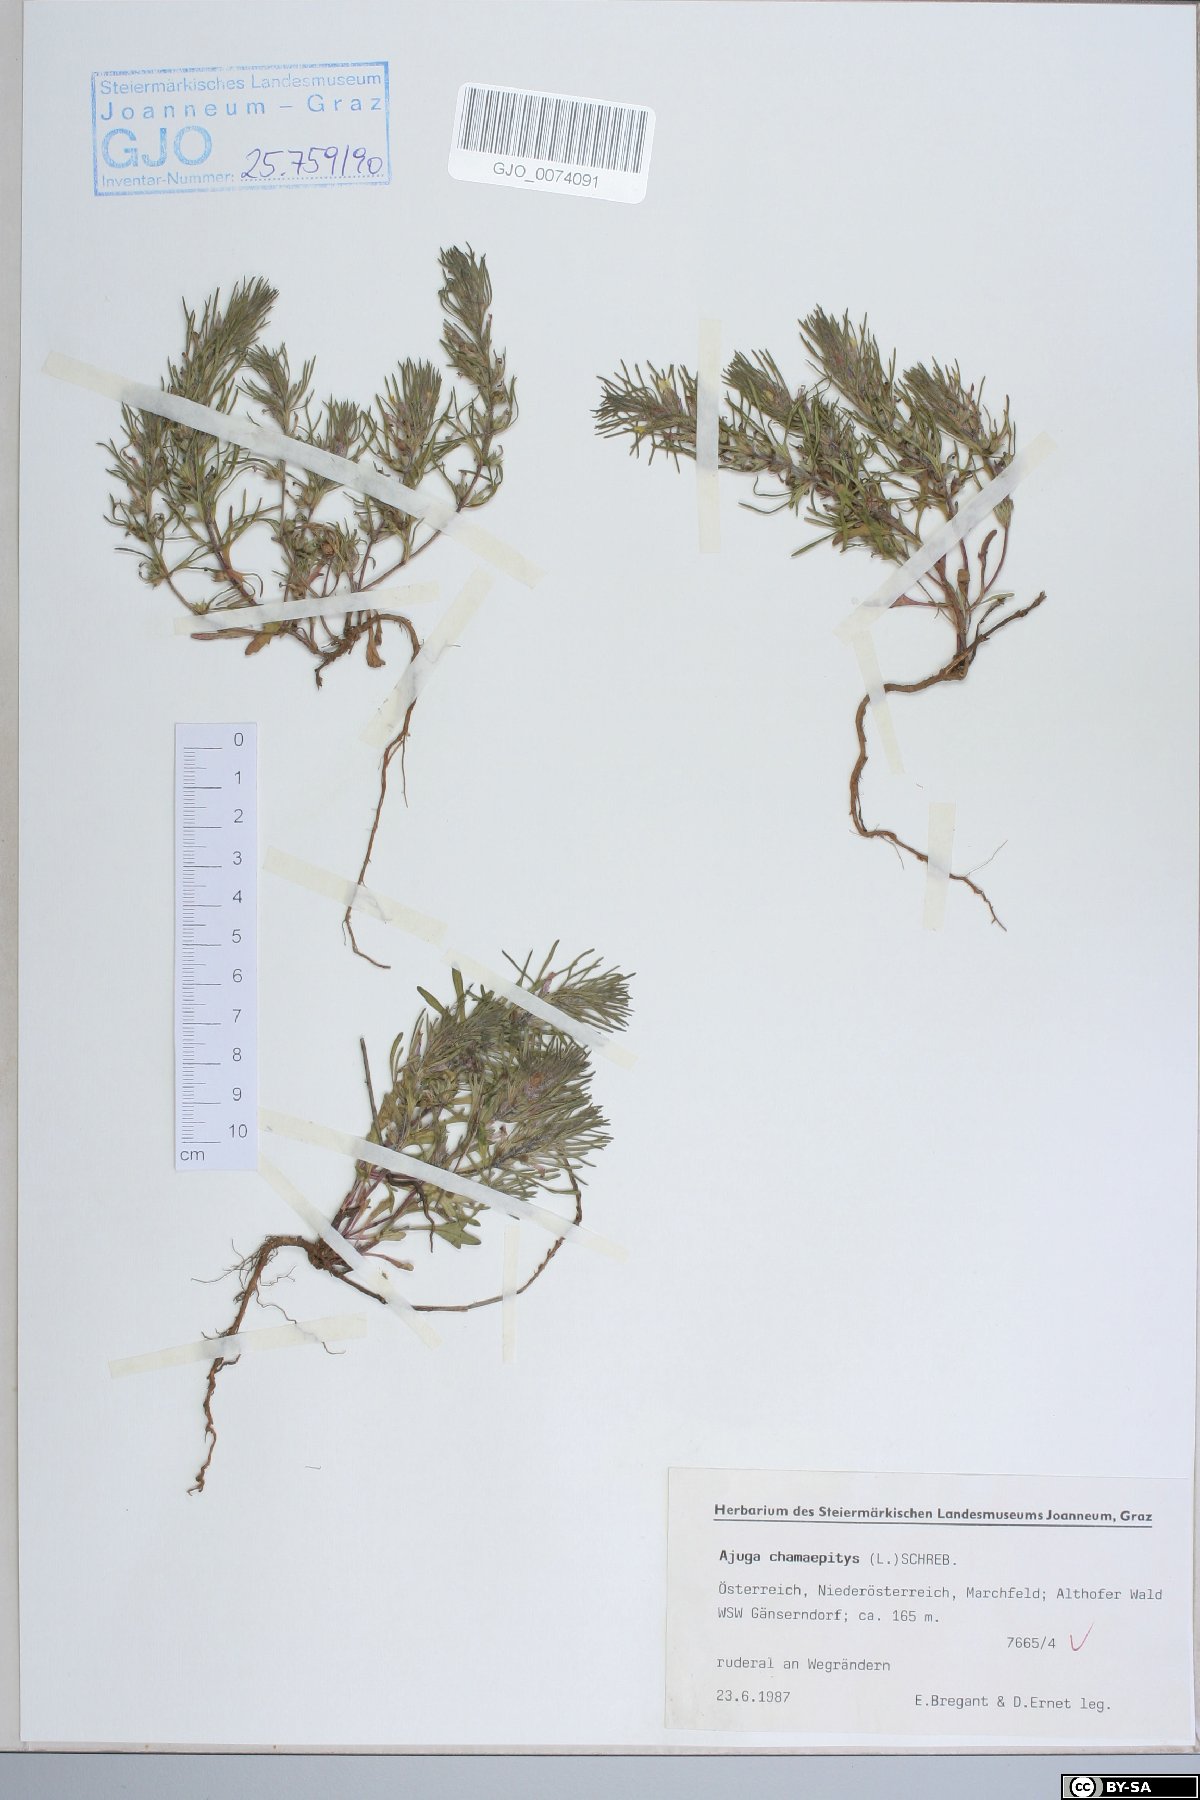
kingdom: Plantae
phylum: Tracheophyta
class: Magnoliopsida
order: Lamiales
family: Lamiaceae
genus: Ajuga
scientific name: Ajuga chamaepitys
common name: Ground-pine
